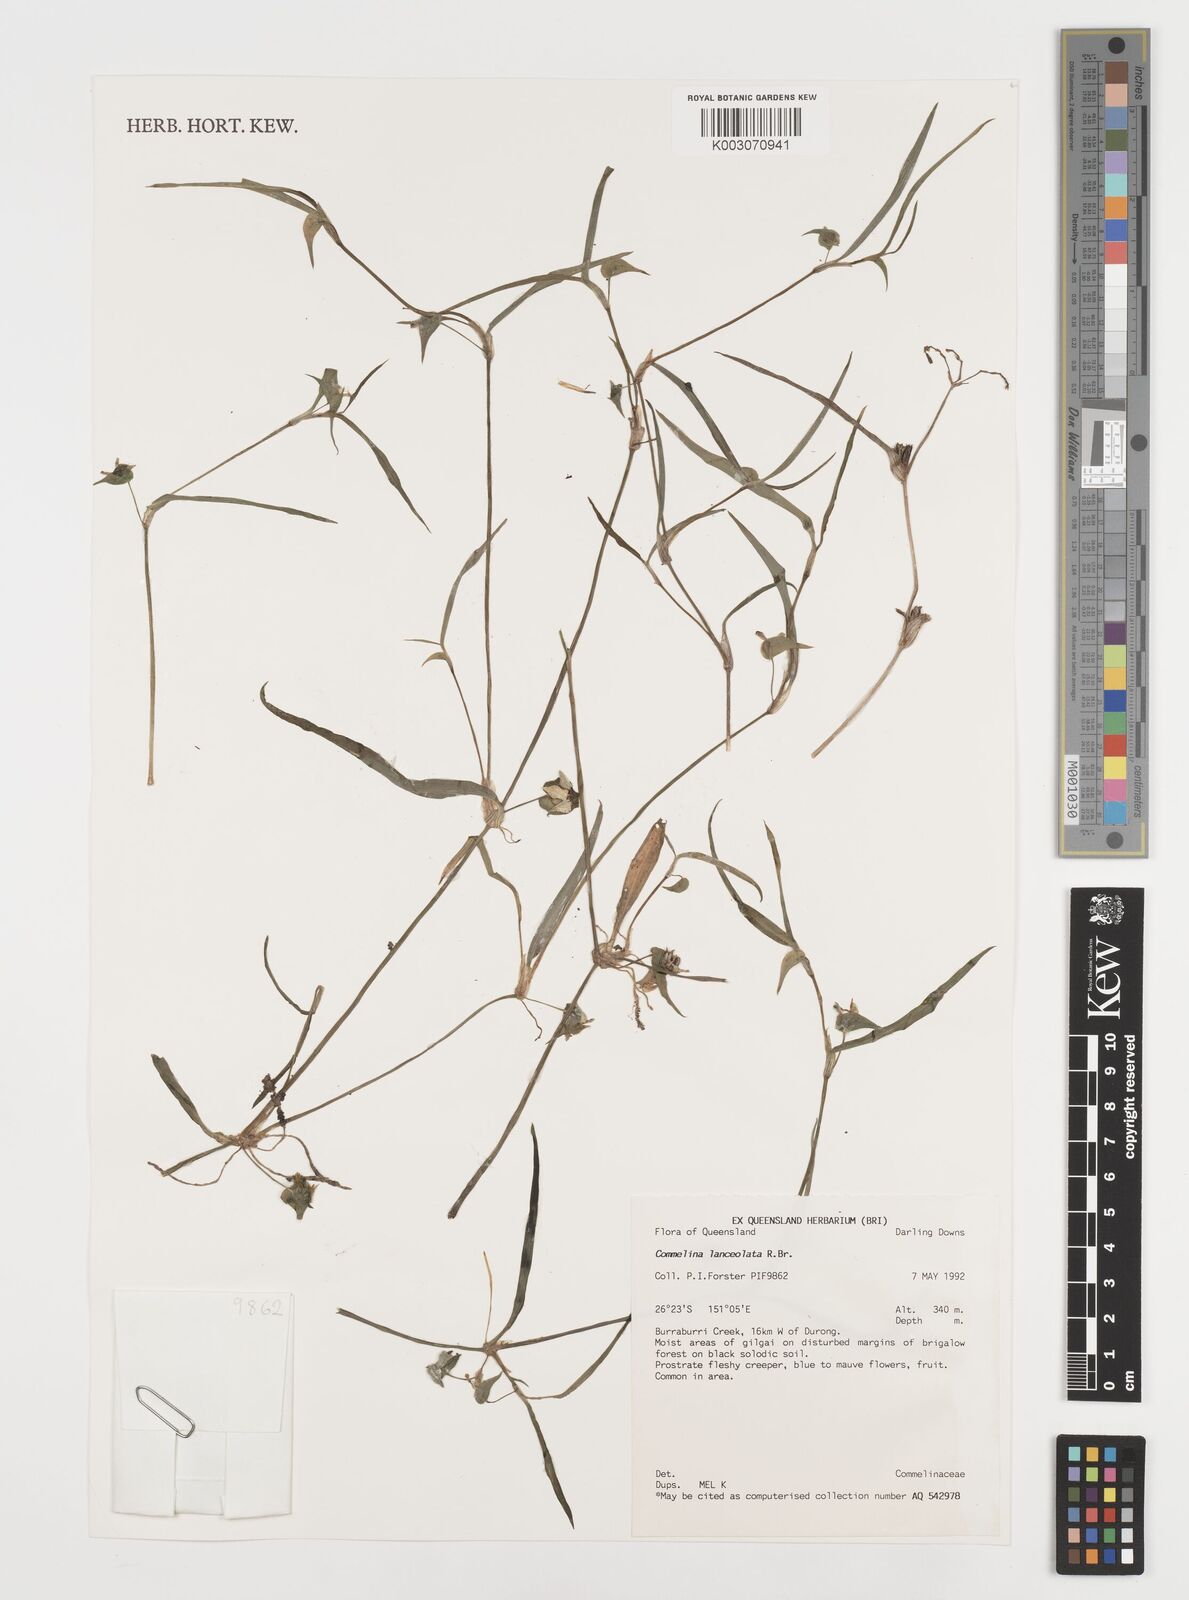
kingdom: Plantae
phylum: Tracheophyta
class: Liliopsida
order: Commelinales
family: Commelinaceae
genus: Commelina
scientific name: Commelina lanceolata
